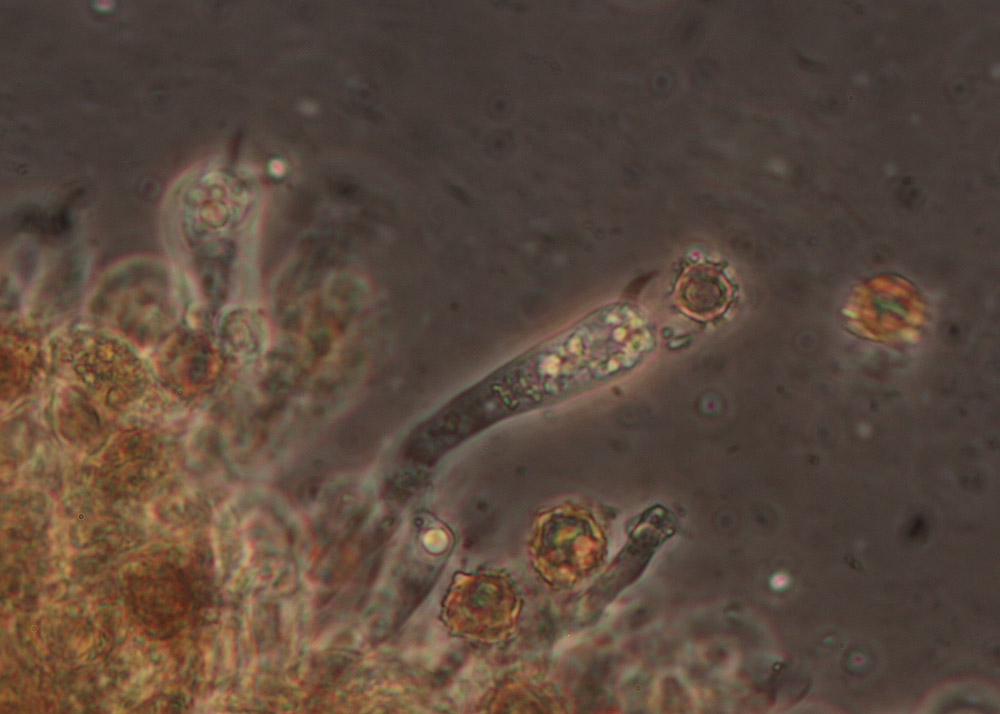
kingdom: Fungi
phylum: Basidiomycota
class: Agaricomycetes
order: Thelephorales
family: Thelephoraceae
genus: Tomentella
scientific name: Tomentella punicea
